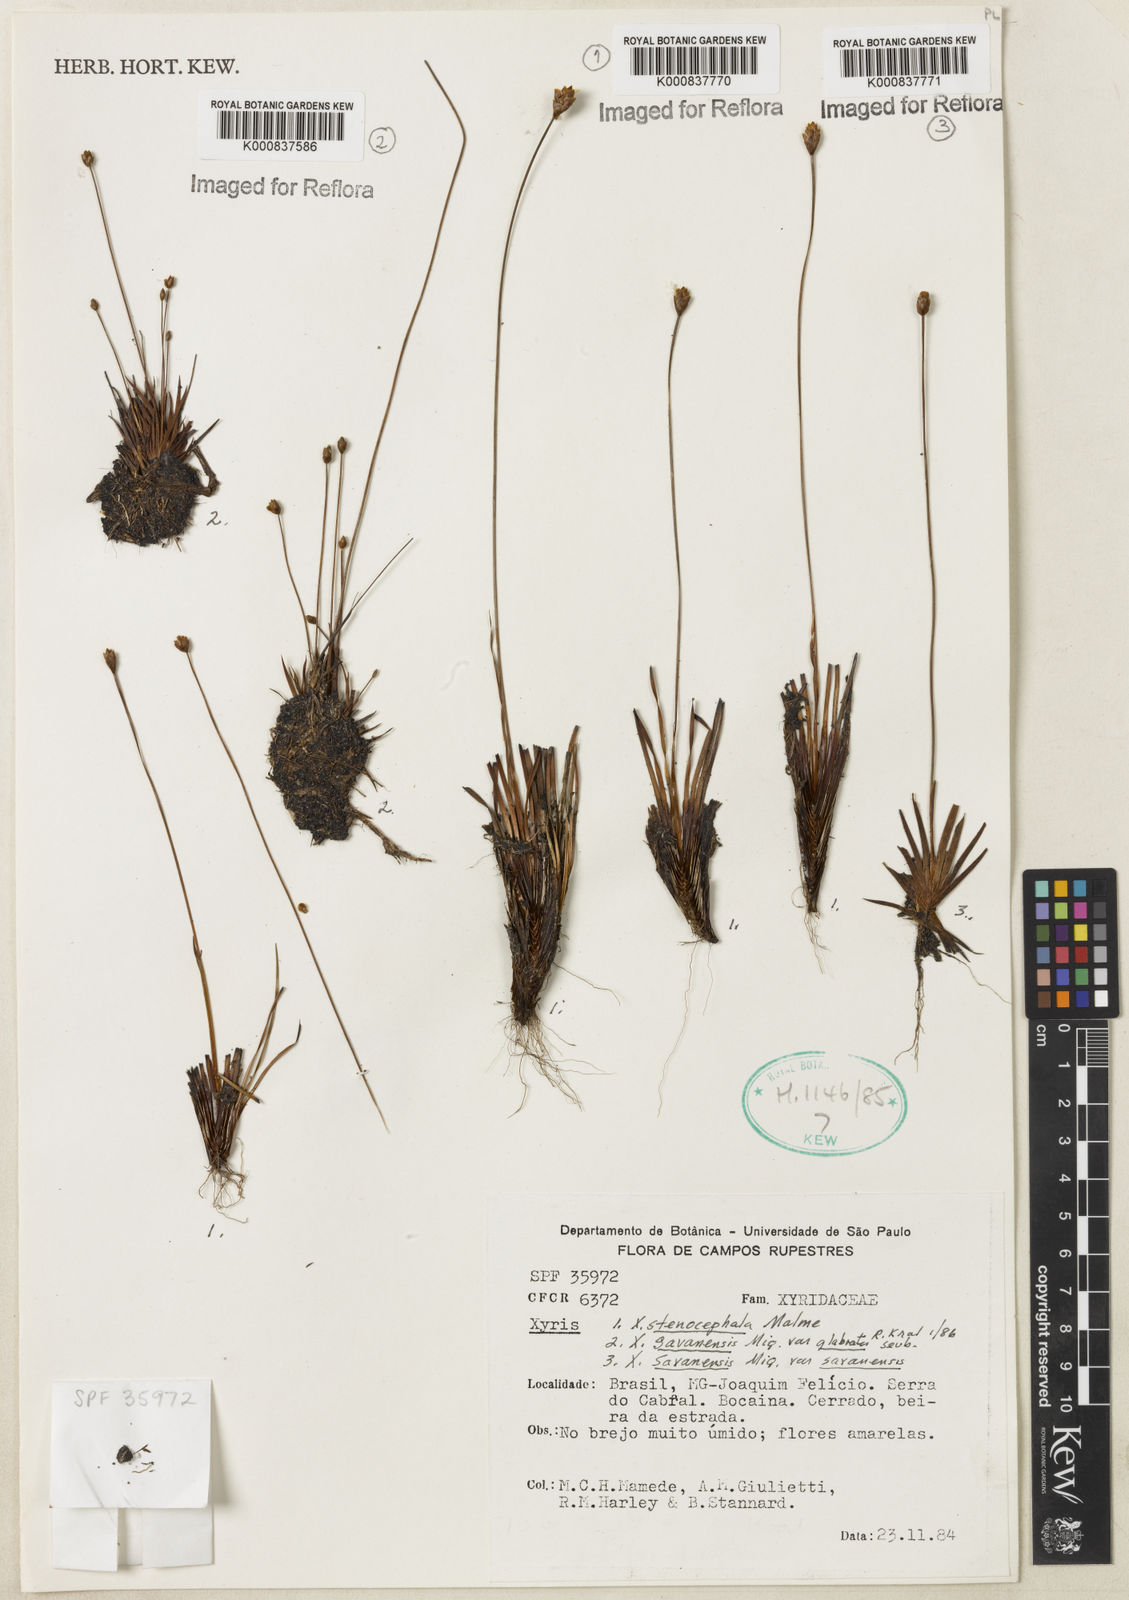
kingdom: Plantae
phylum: Tracheophyta
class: Liliopsida
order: Poales
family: Xyridaceae
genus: Xyris
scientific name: Xyris stenocephala
